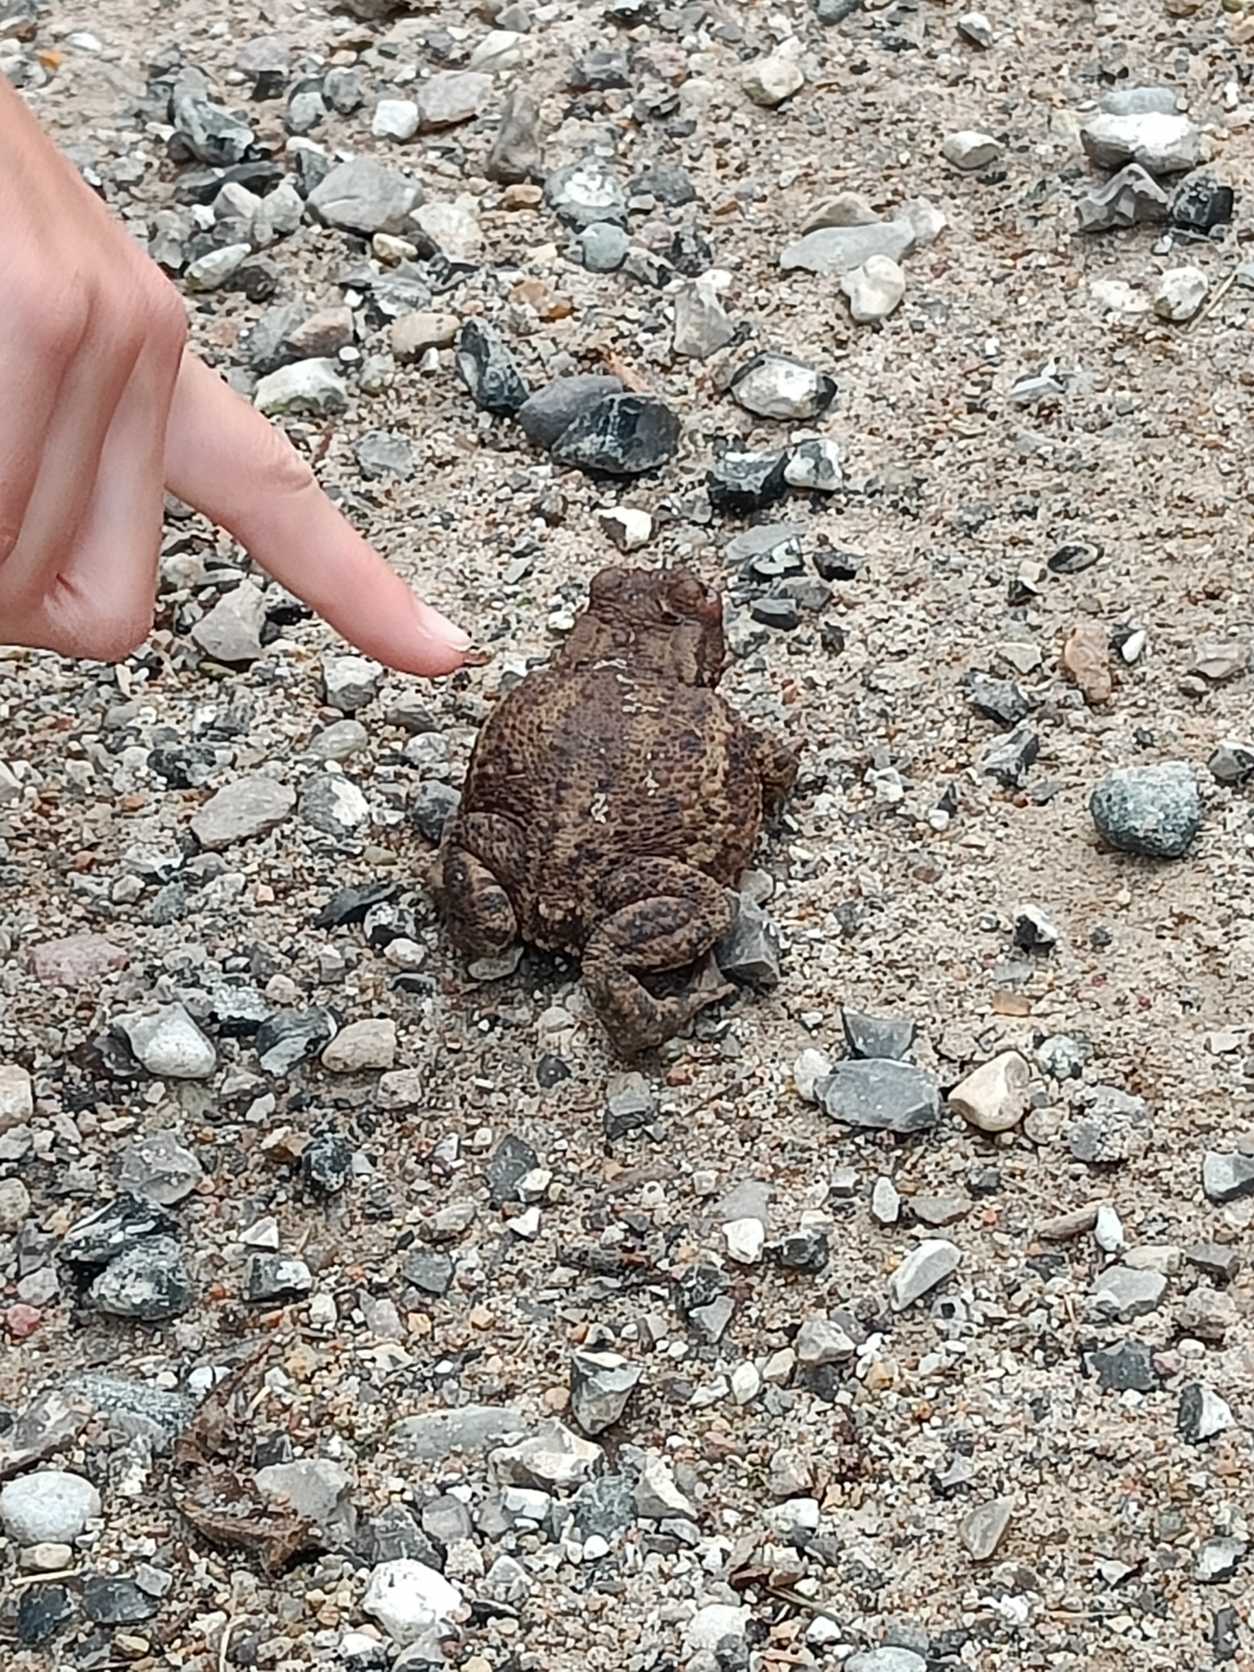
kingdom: Animalia
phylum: Chordata
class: Amphibia
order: Anura
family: Bufonidae
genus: Bufo
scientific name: Bufo bufo
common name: Skrubtudse
